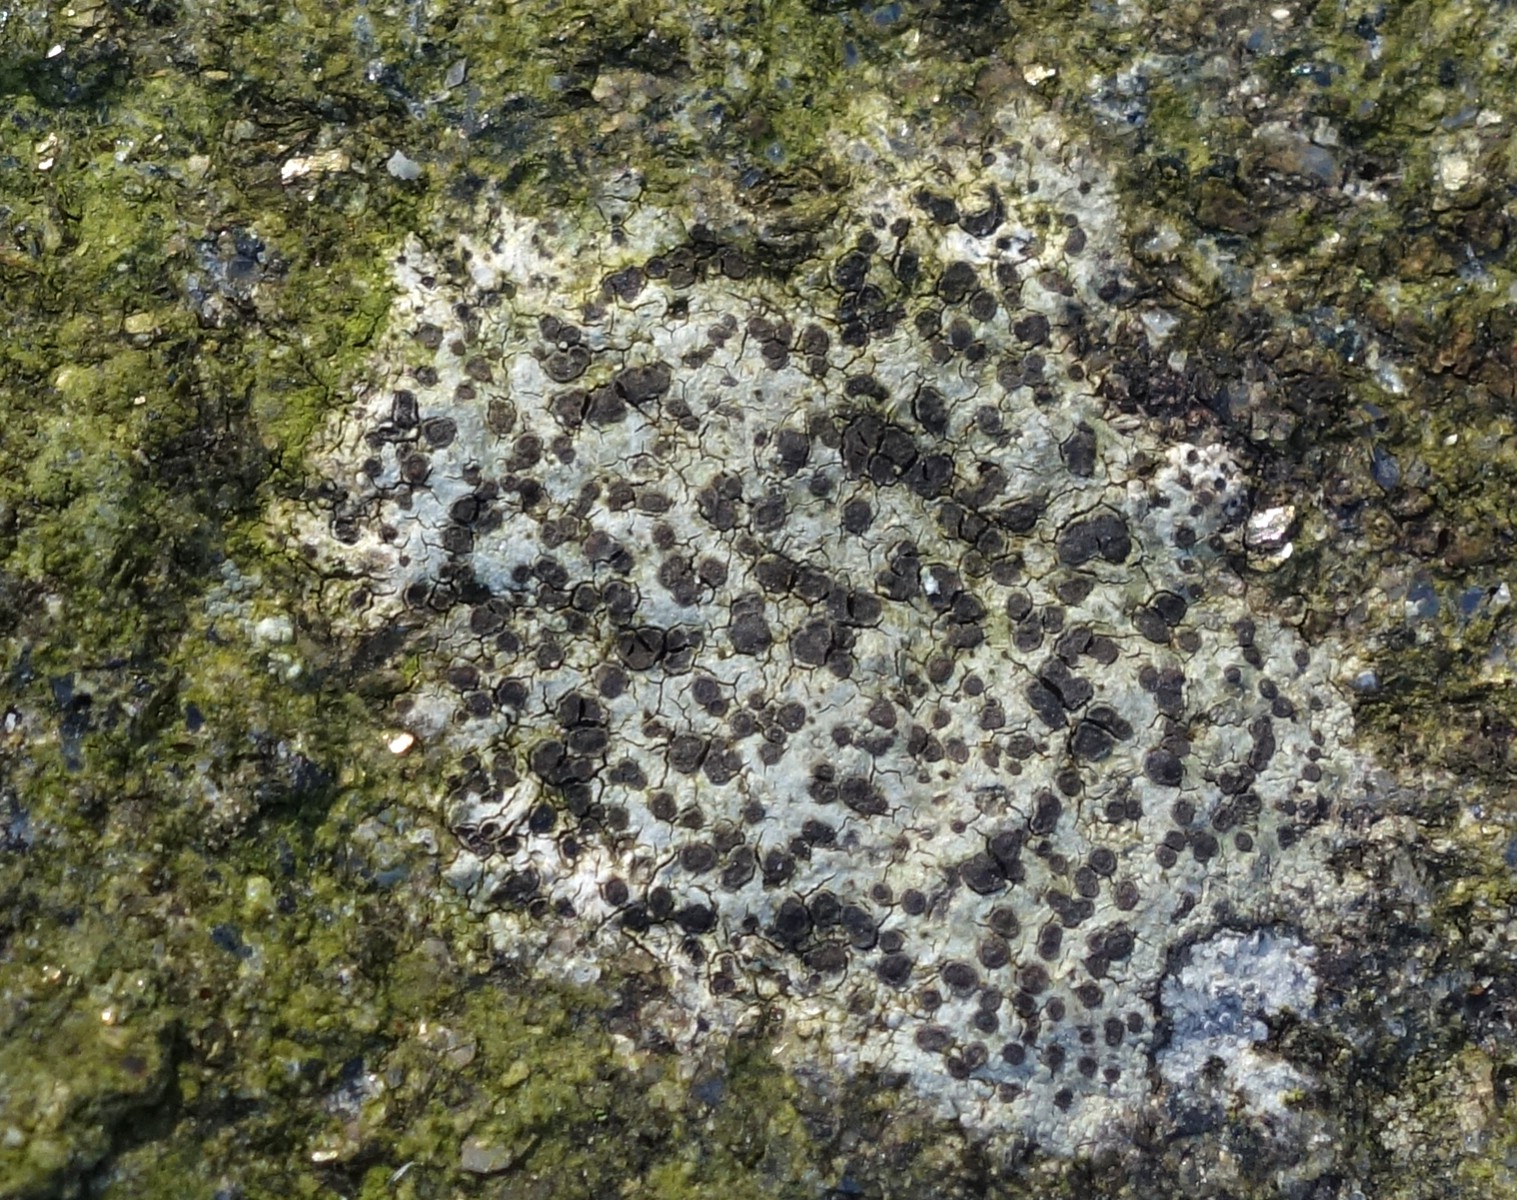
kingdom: Fungi
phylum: Ascomycota
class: Lecanoromycetes
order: Lecanorales
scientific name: Lecanorales
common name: skivelavordenen
